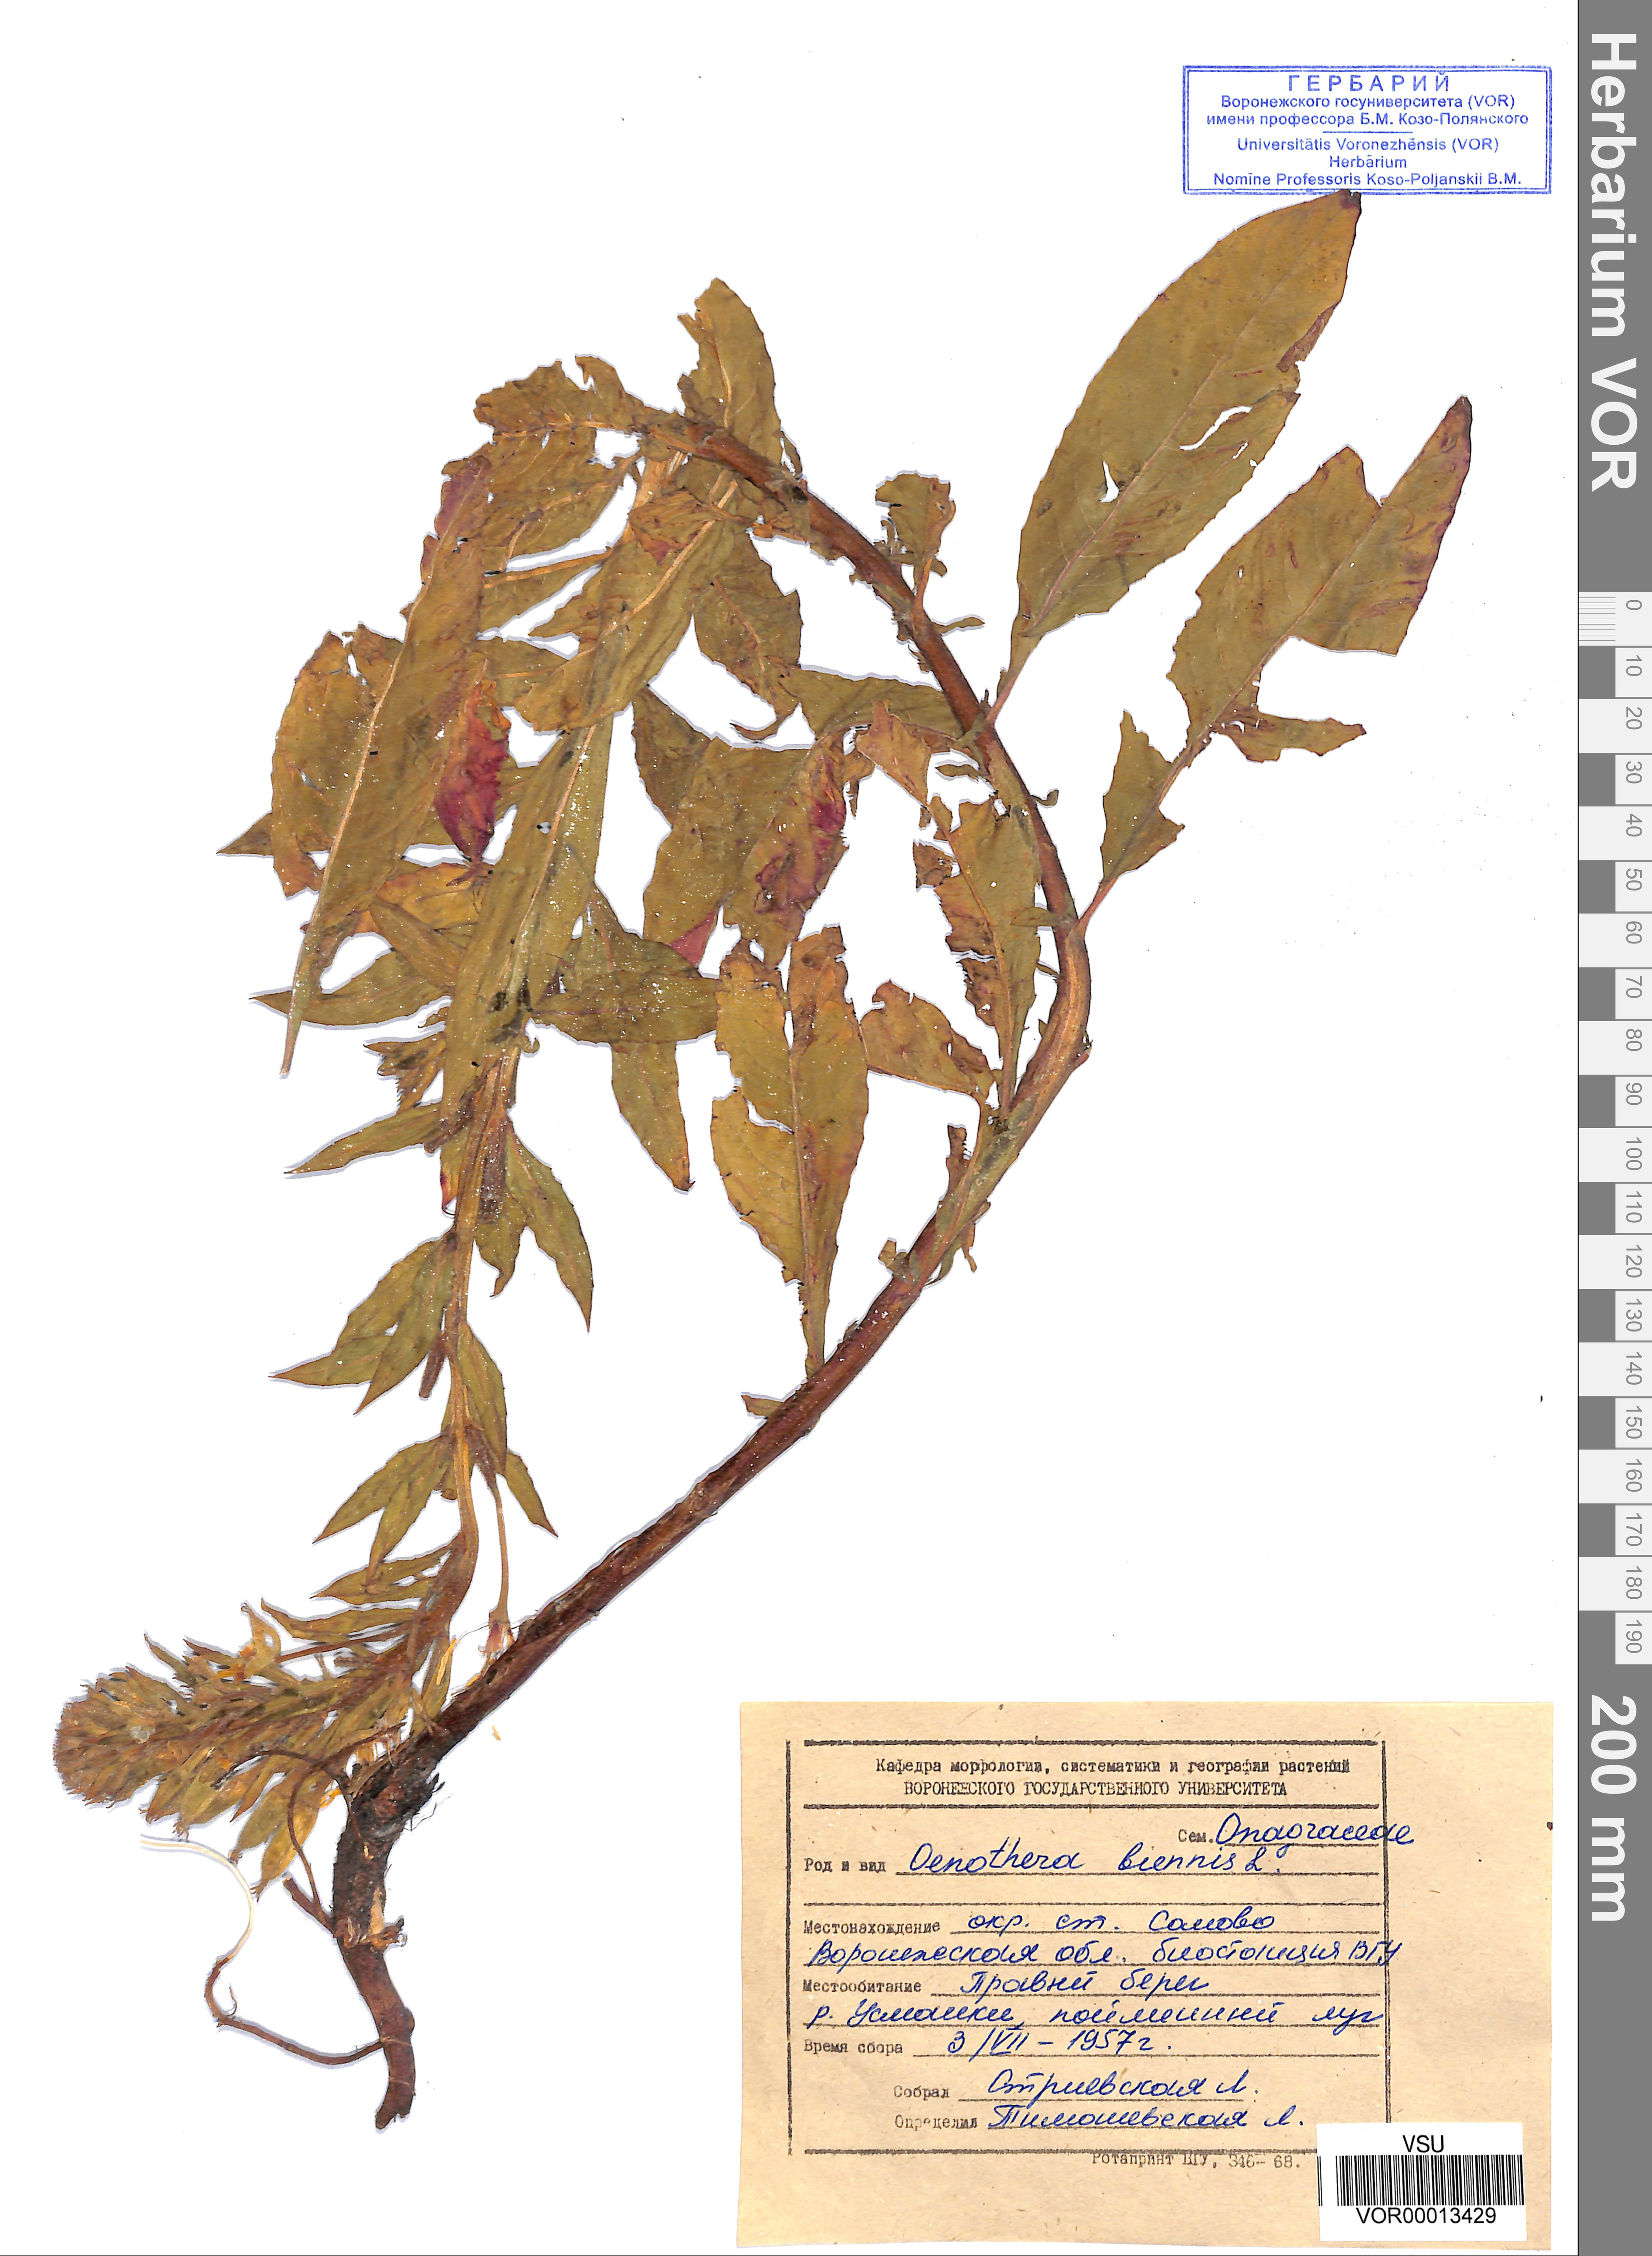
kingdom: Plantae
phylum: Tracheophyta
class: Magnoliopsida
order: Myrtales
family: Onagraceae
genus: Oenothera
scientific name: Oenothera biennis
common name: Common evening-primrose
